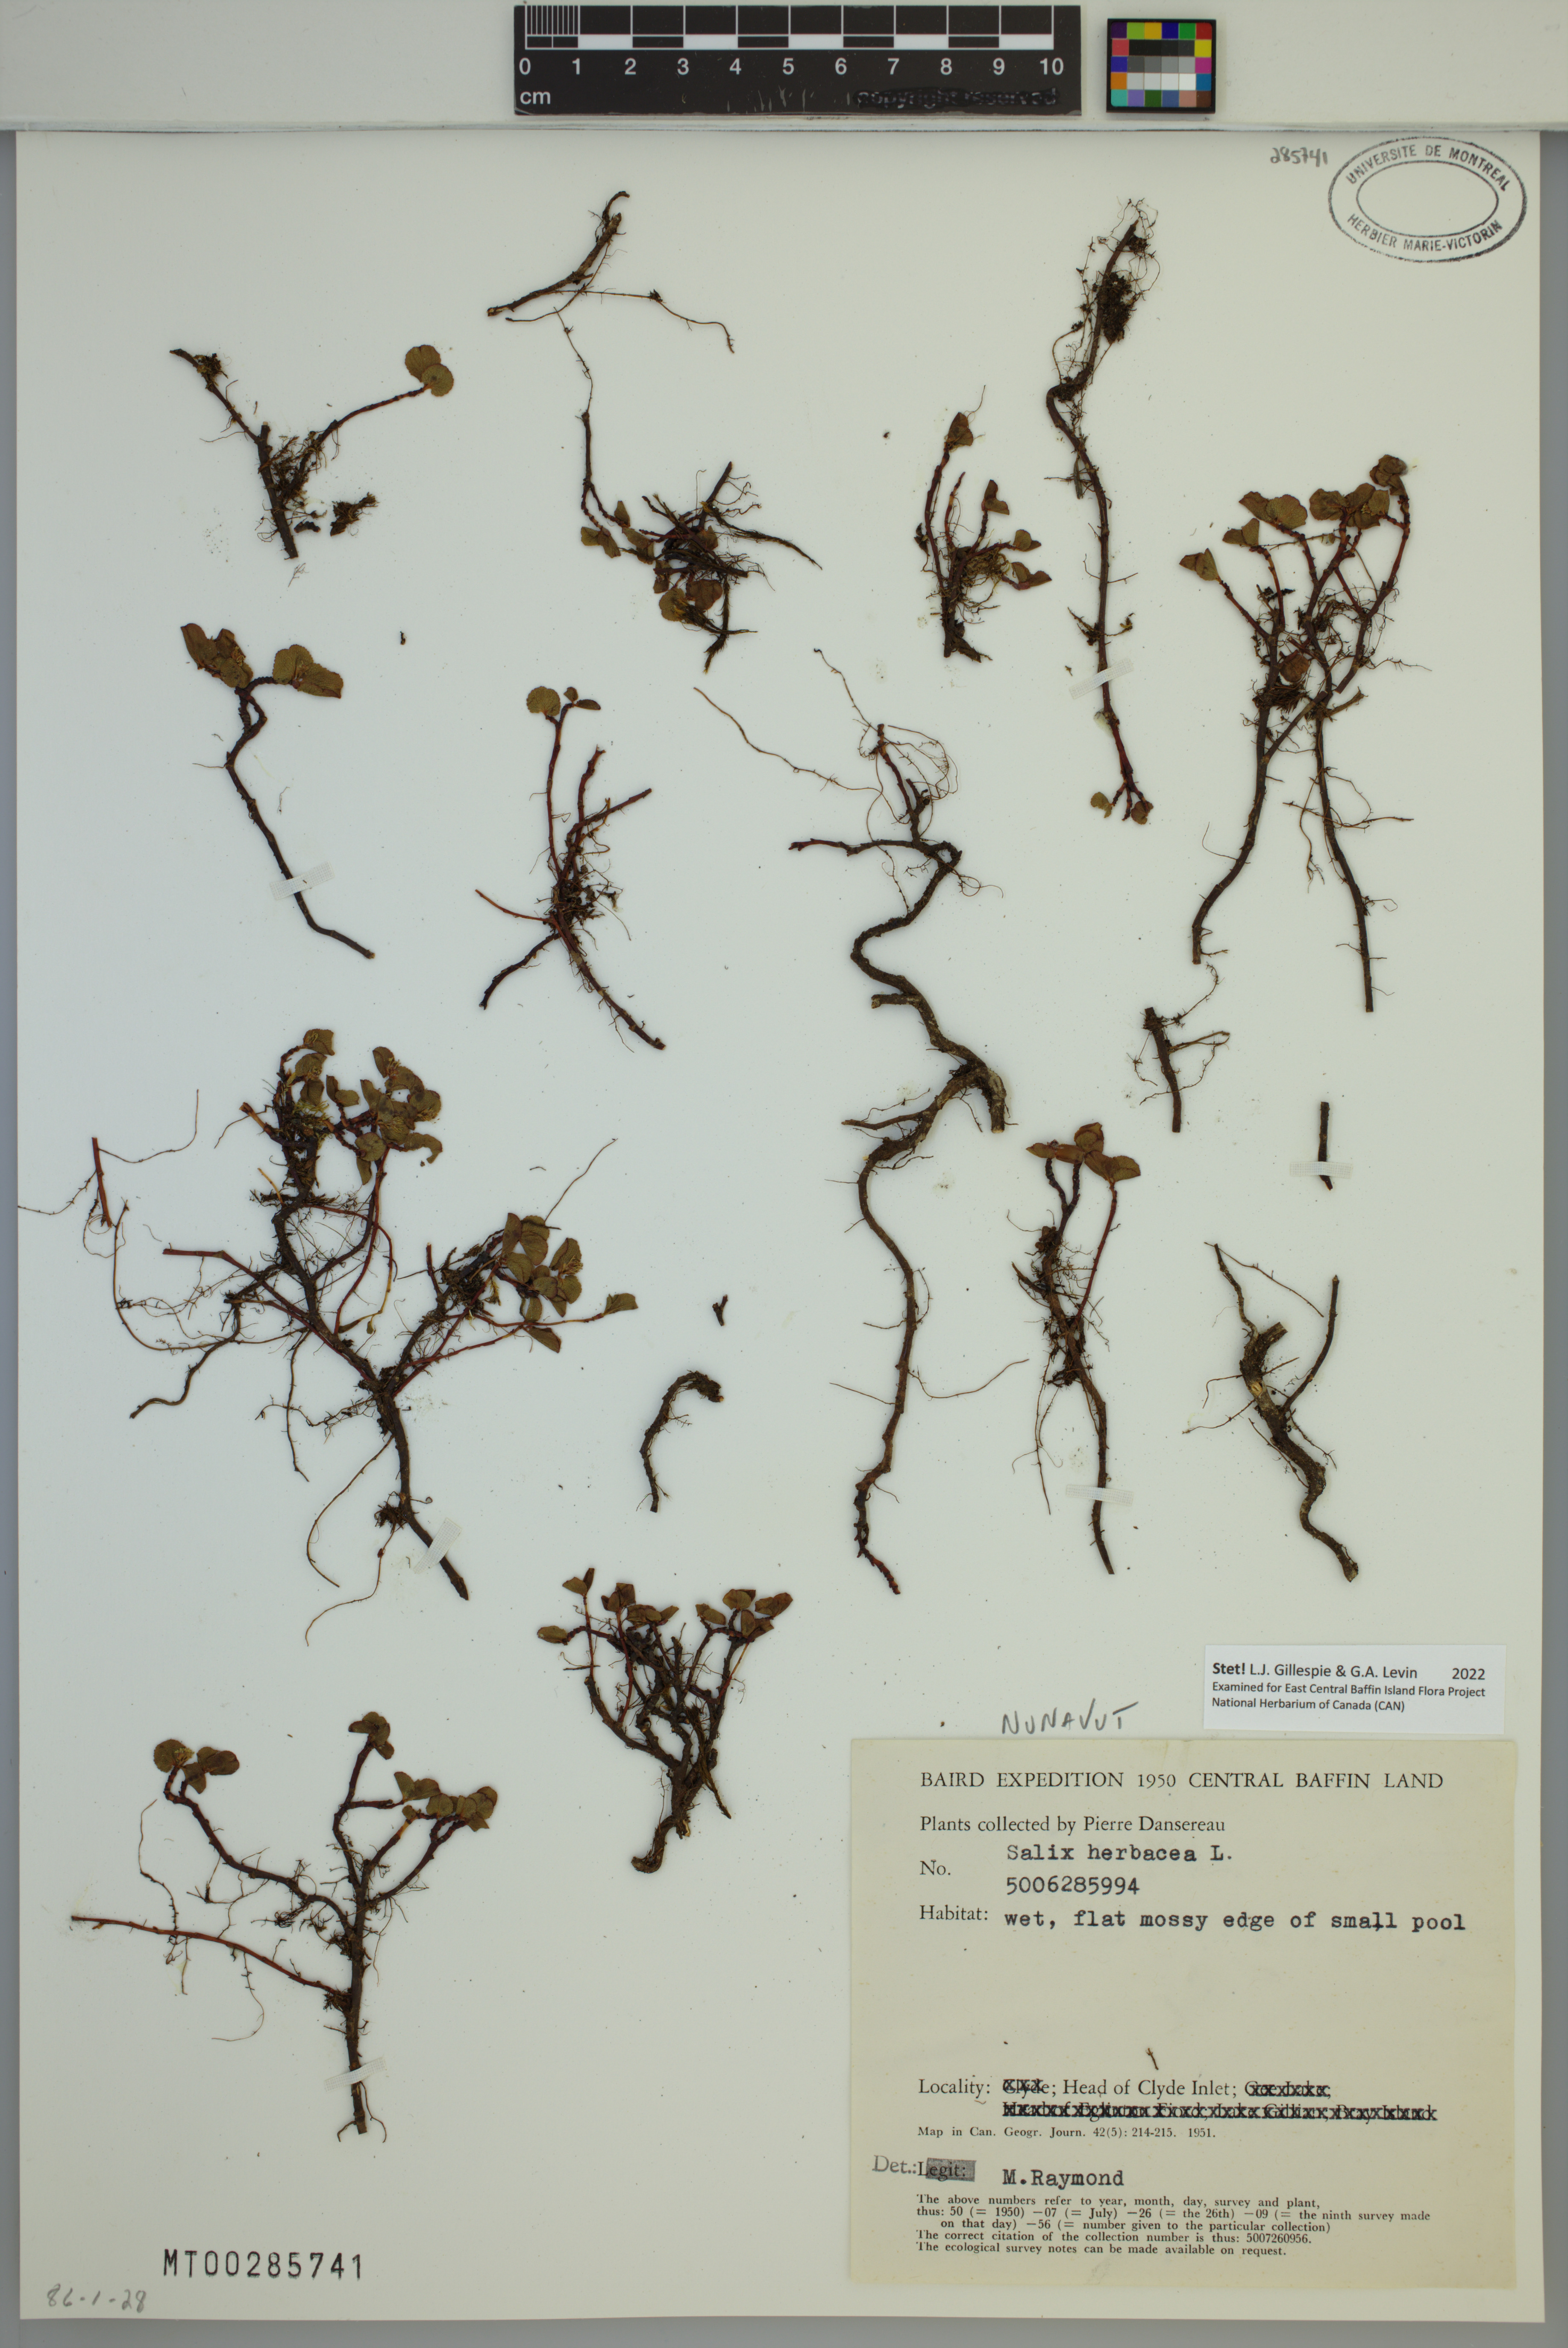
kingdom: Plantae
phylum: Tracheophyta
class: Magnoliopsida
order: Malpighiales
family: Salicaceae
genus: Salix
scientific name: Salix herbacea
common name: Dwarf willow
